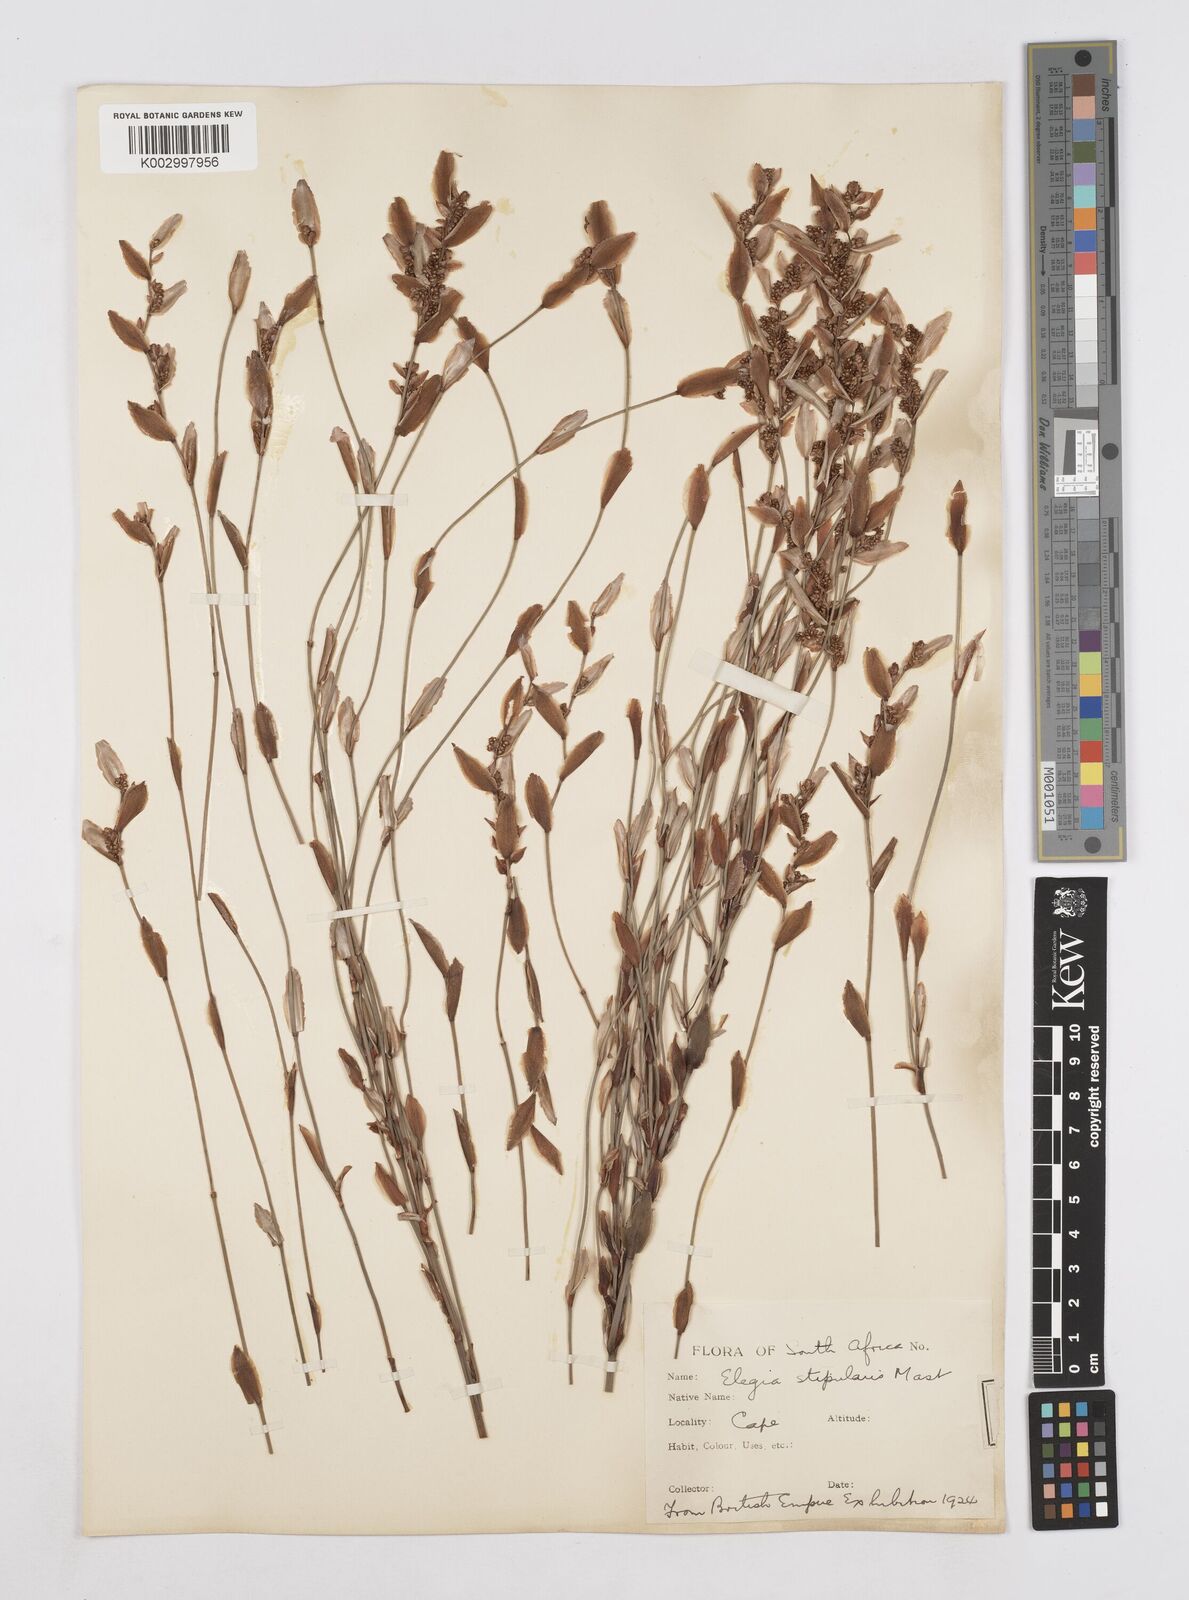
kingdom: Plantae
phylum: Tracheophyta
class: Liliopsida
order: Poales
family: Restionaceae
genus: Elegia
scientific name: Elegia stipularis
